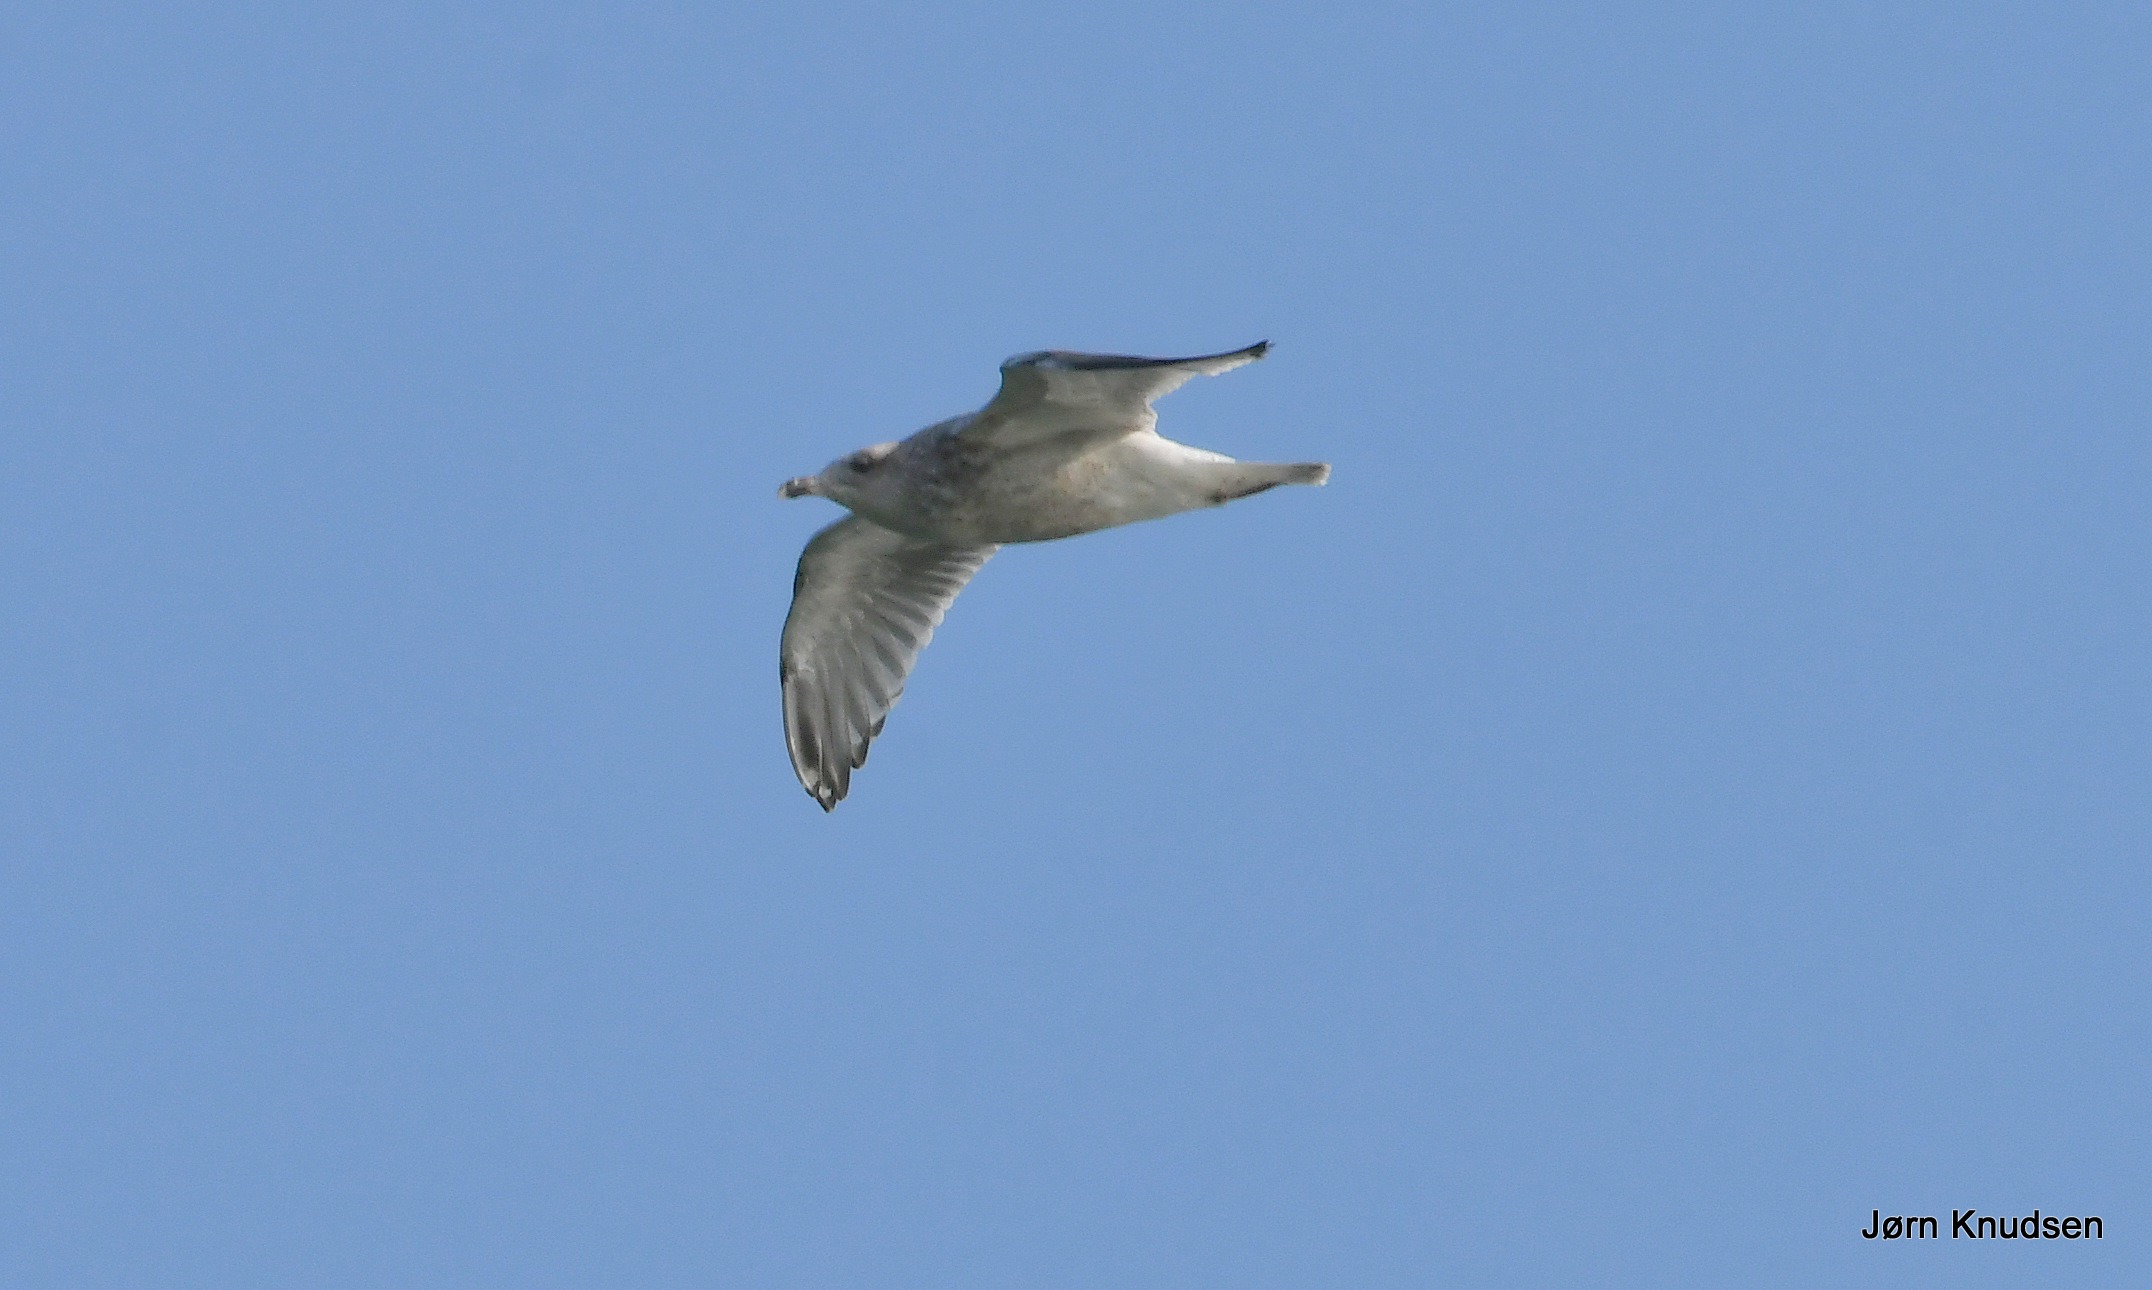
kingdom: Animalia
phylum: Chordata
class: Aves
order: Charadriiformes
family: Laridae
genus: Larus
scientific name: Larus argentatus
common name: Sølvmåge
